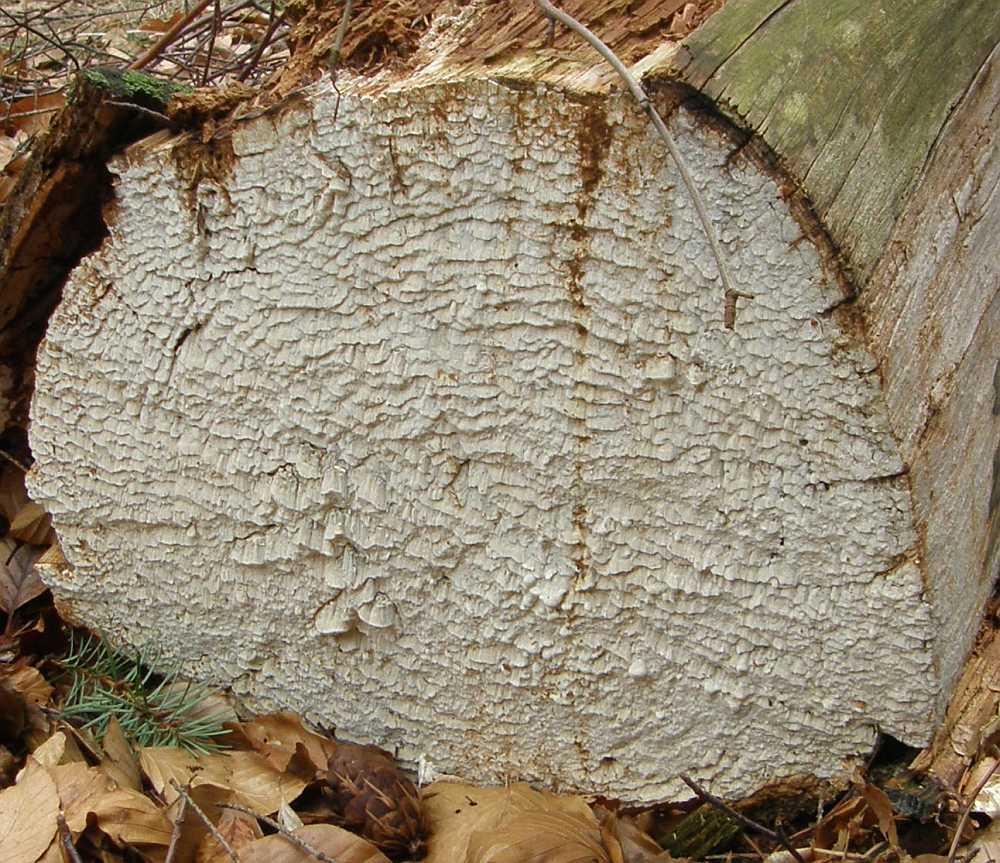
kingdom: Fungi
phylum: Basidiomycota
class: Agaricomycetes
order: Polyporales
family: Fomitopsidaceae
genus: Daedalea
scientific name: Daedalea xantha
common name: gul sejporesvamp
